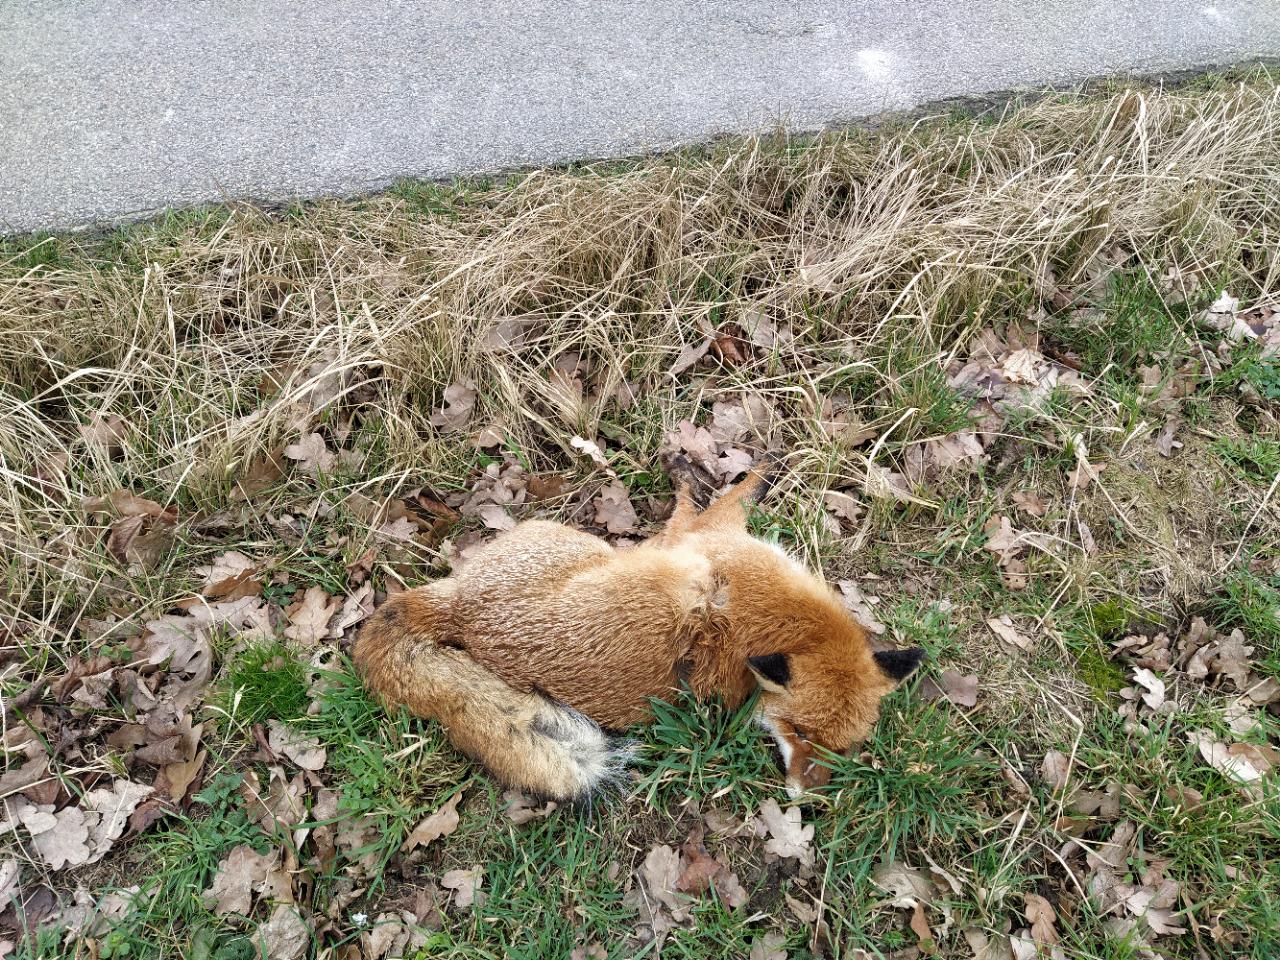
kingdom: Animalia
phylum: Chordata
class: Mammalia
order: Carnivora
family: Canidae
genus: Vulpes
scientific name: Vulpes vulpes
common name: Red fox
